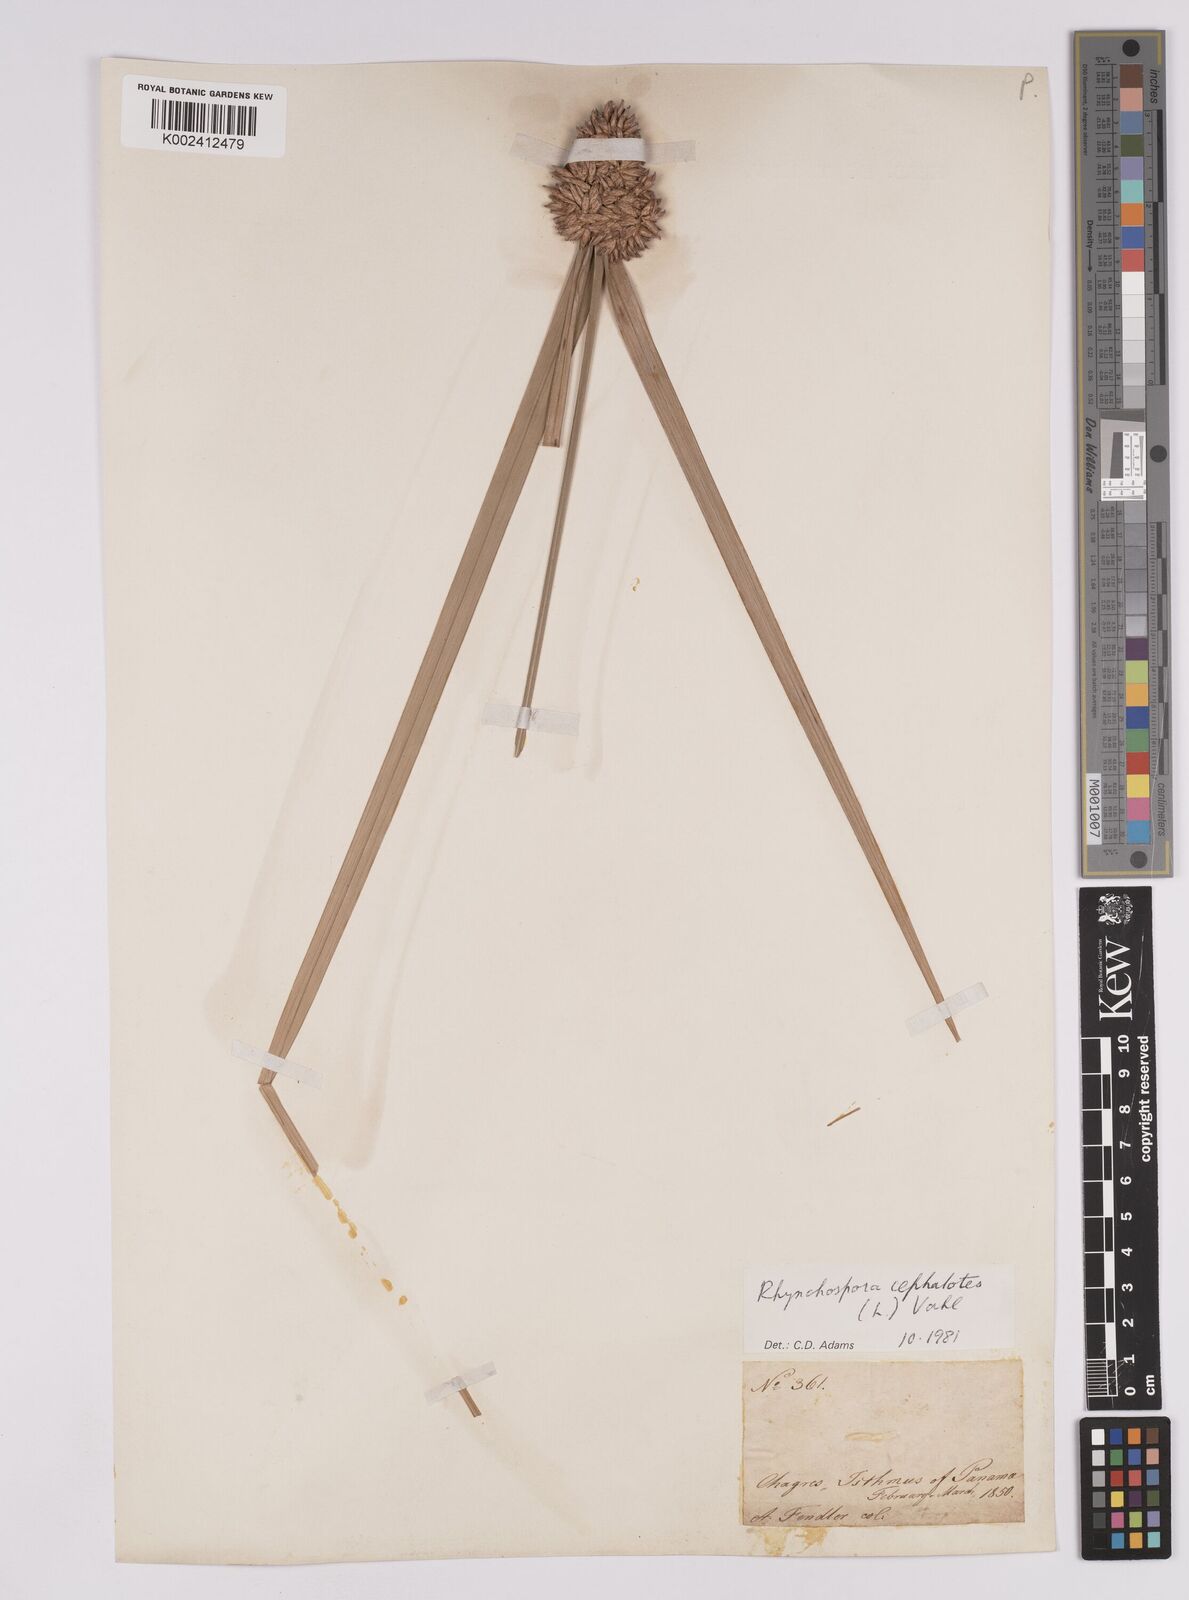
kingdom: Plantae
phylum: Tracheophyta
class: Liliopsida
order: Poales
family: Cyperaceae
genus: Rhynchospora
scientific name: Rhynchospora cephalotes
